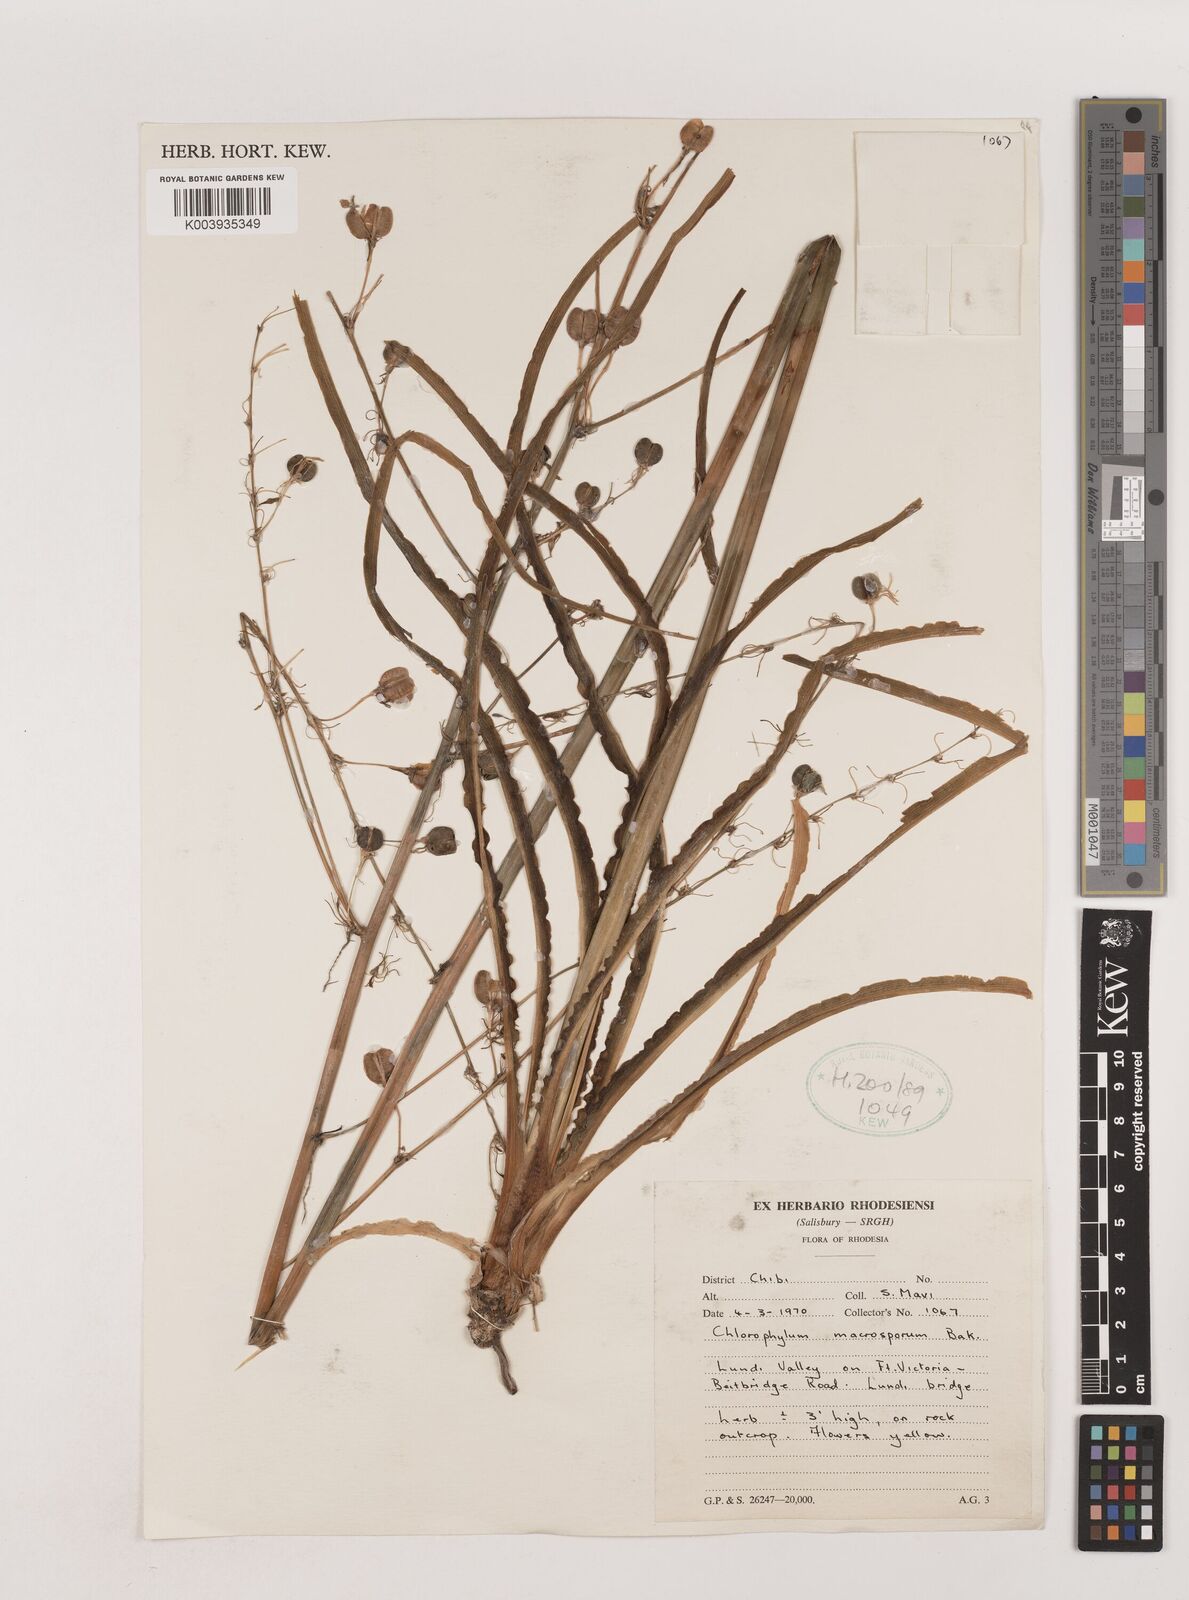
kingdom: Plantae
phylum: Tracheophyta
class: Liliopsida
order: Asparagales
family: Asparagaceae
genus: Chlorophytum
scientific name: Chlorophytum macrosporum
